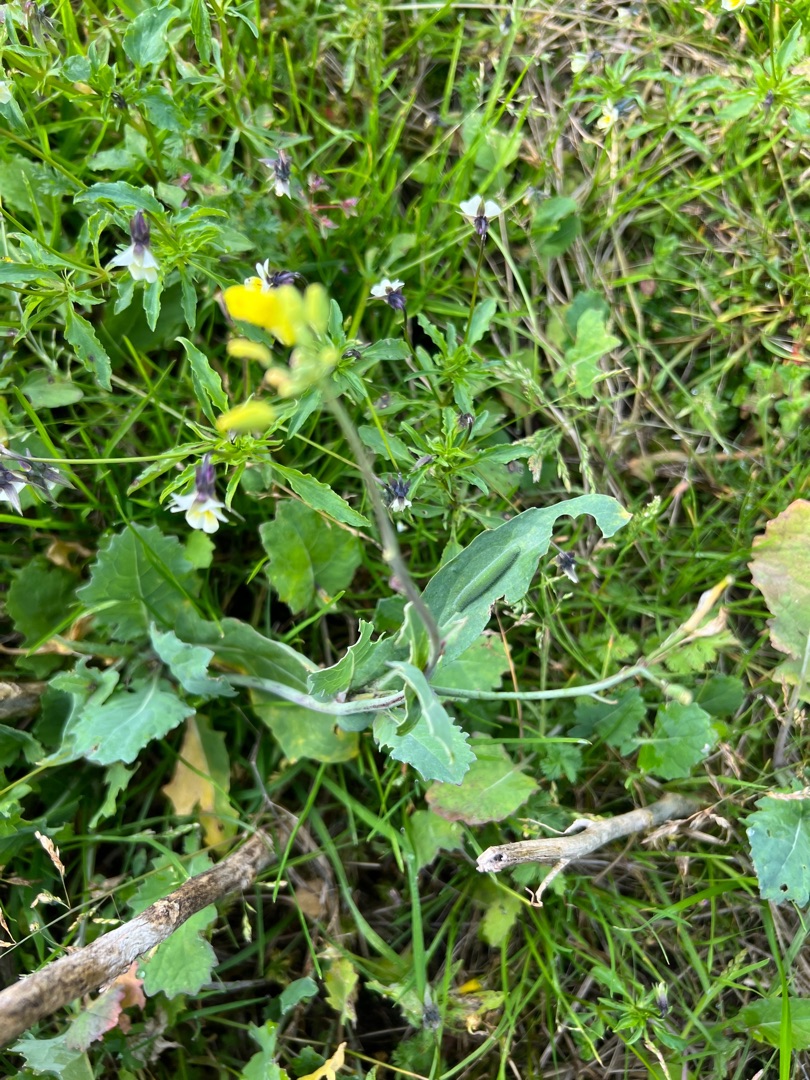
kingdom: Animalia
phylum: Arthropoda
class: Insecta
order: Lepidoptera
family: Pieridae
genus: Pieris
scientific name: Pieris rapae
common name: Lille kålsommerfugl
